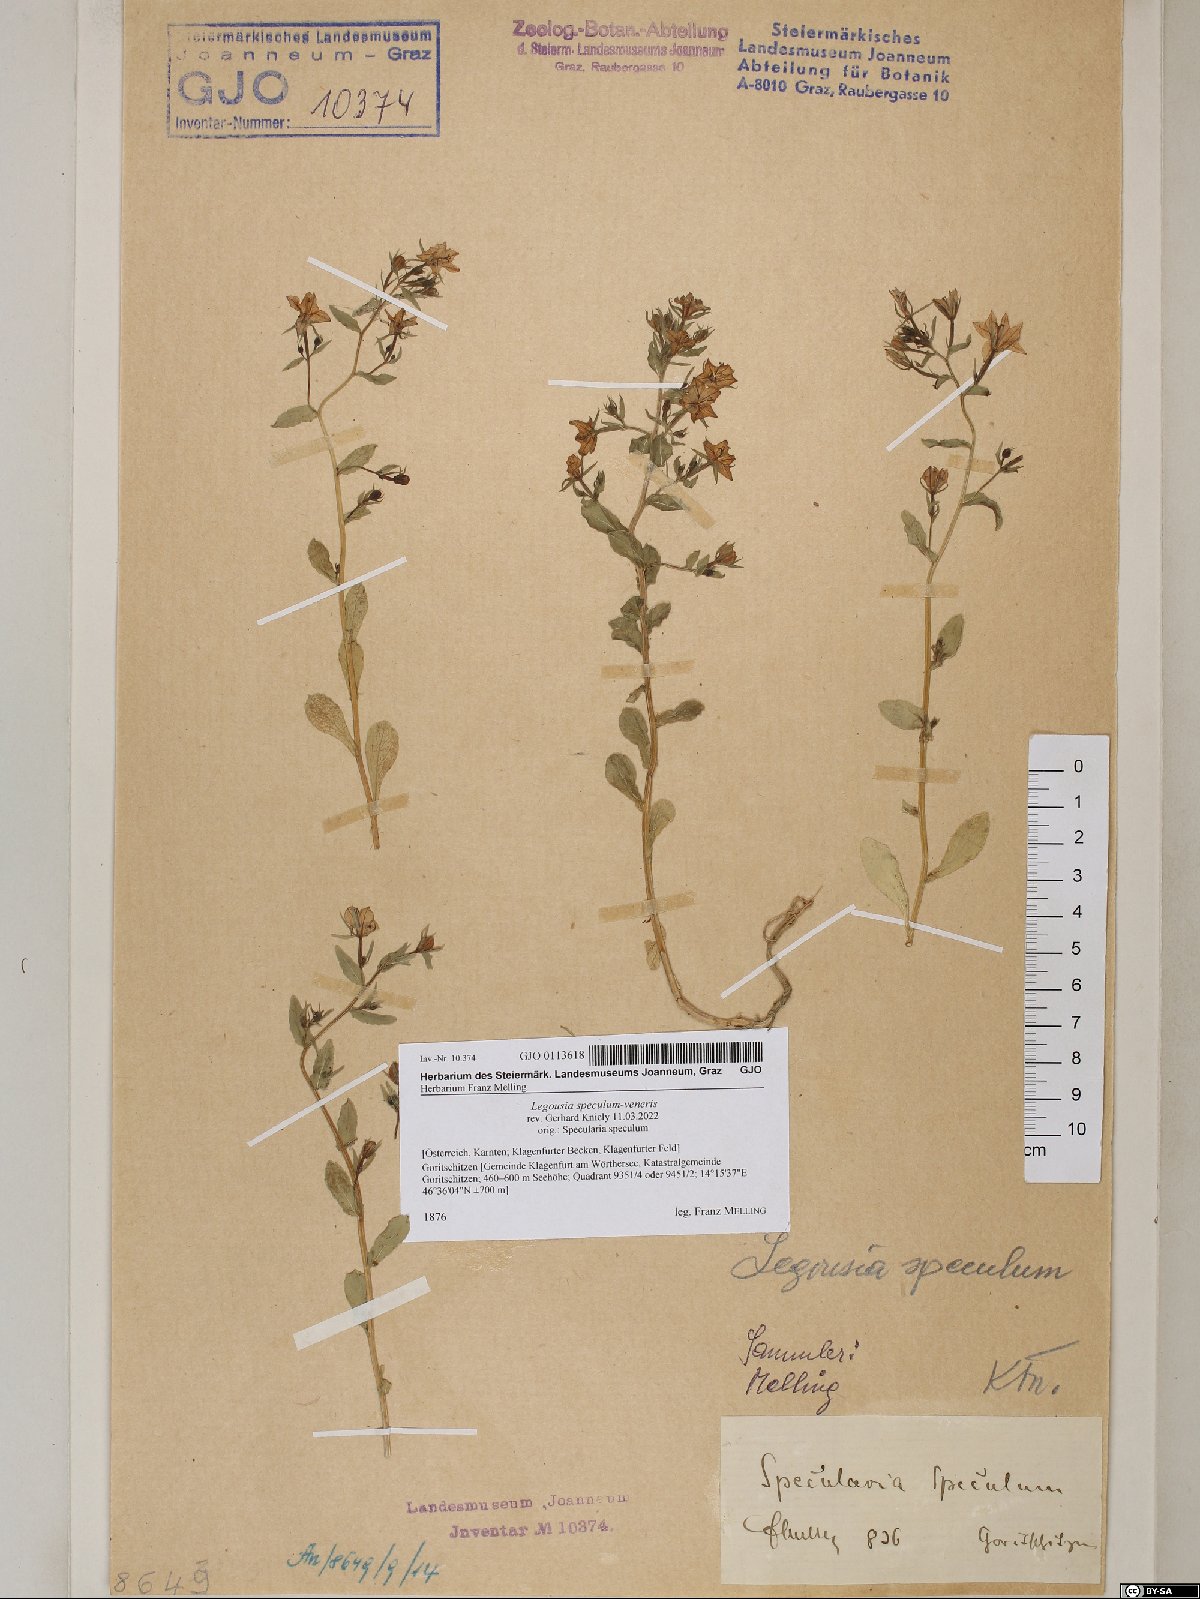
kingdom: Plantae
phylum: Tracheophyta
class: Magnoliopsida
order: Asterales
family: Campanulaceae
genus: Legousia
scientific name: Legousia speculum-veneris
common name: Large venus's-looking-glass
